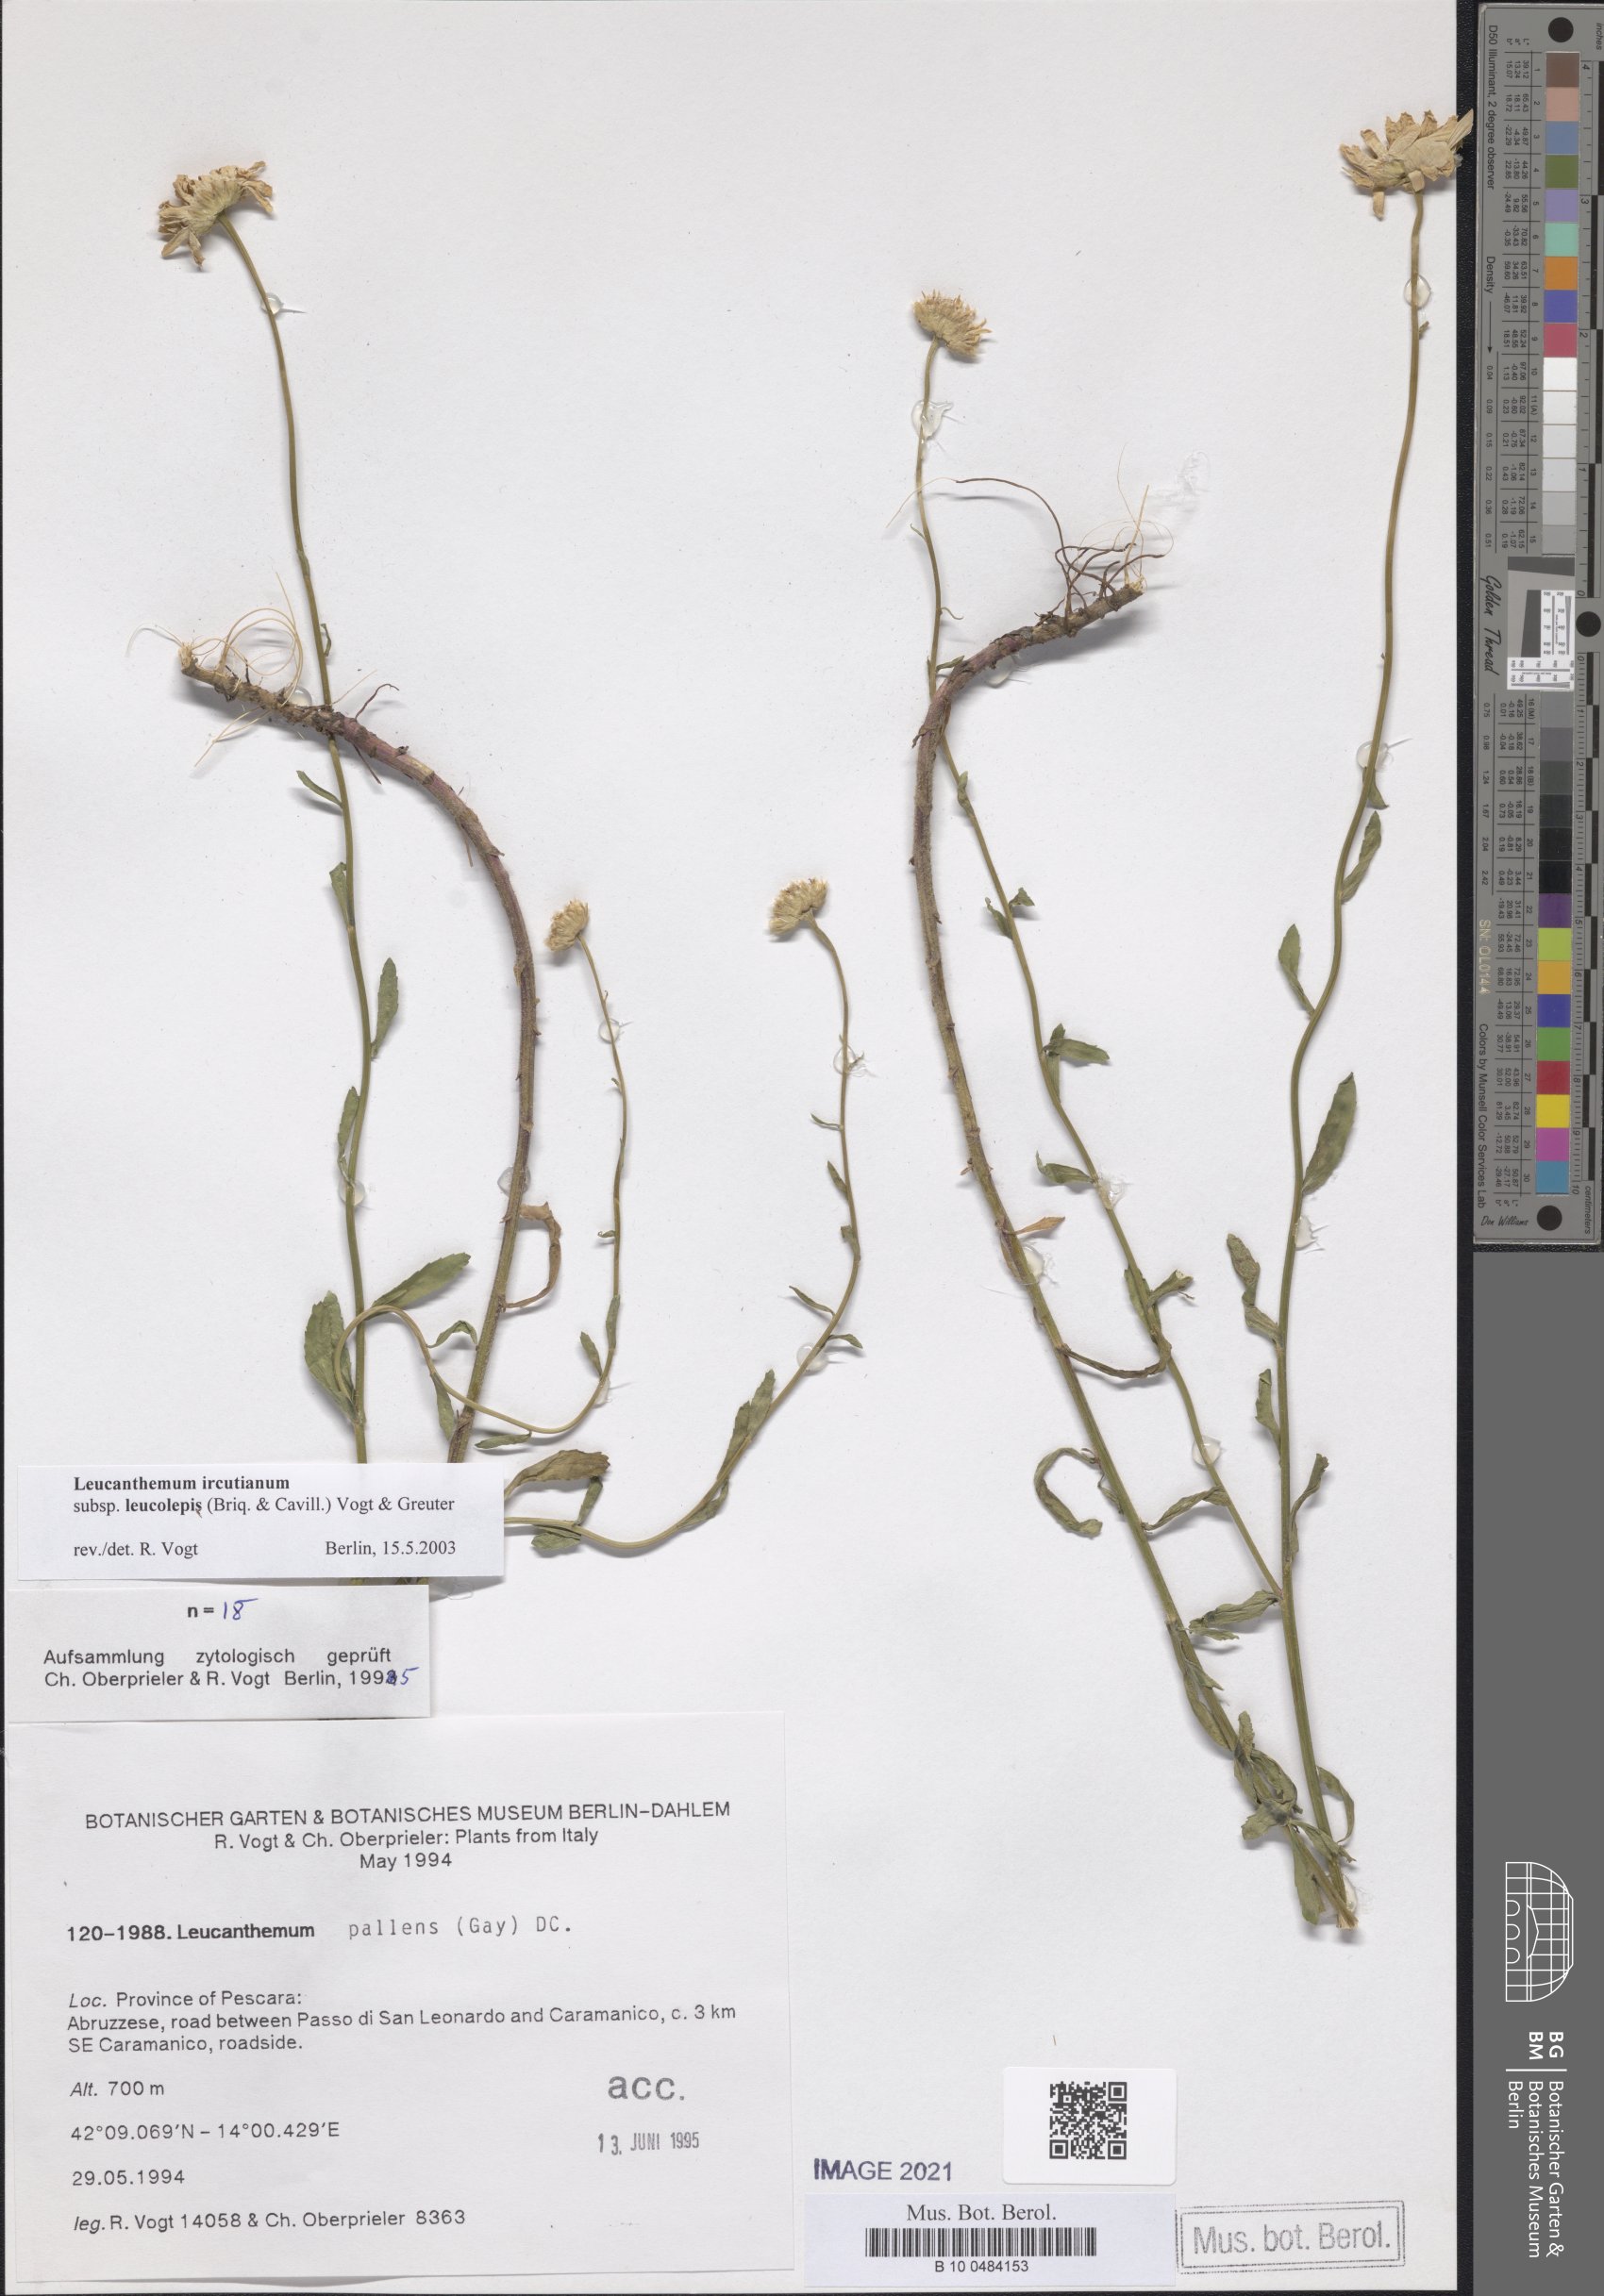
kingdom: Plantae
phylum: Tracheophyta
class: Magnoliopsida
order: Asterales
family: Asteraceae
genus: Leucanthemum
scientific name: Leucanthemum ircutianum
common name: Daisy
